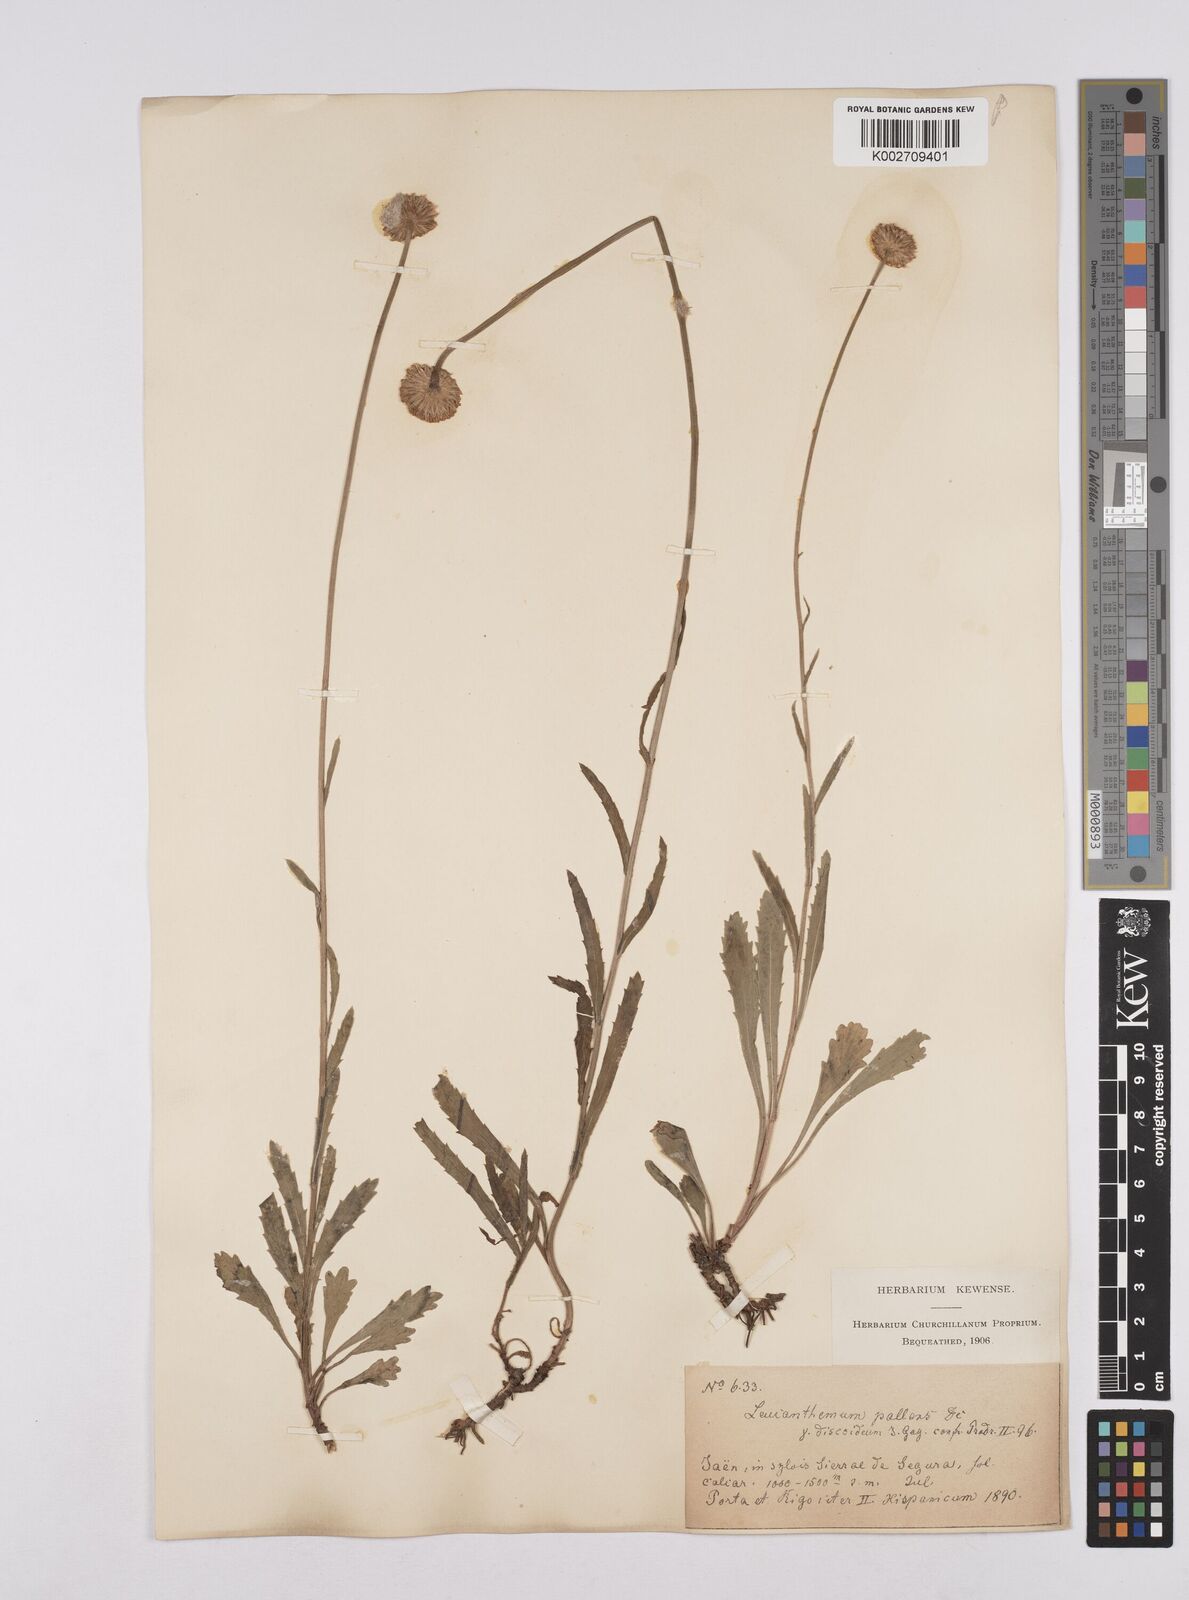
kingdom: Plantae
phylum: Tracheophyta
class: Magnoliopsida
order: Asterales
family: Asteraceae
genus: Leucanthemum
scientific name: Leucanthemum vulgare
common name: Oxeye daisy
